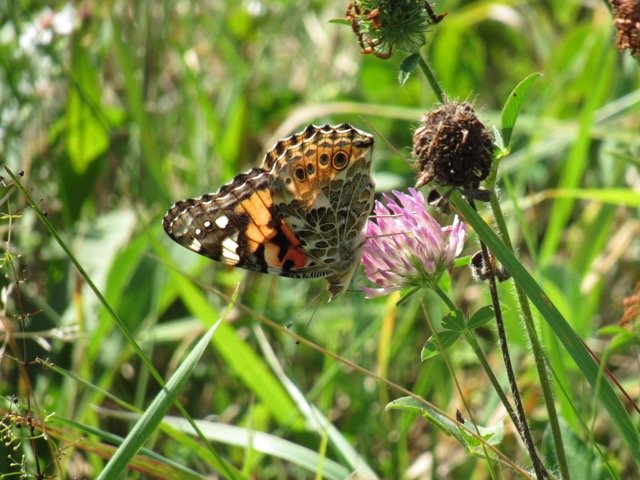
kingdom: Animalia
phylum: Arthropoda
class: Insecta
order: Lepidoptera
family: Nymphalidae
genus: Vanessa
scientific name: Vanessa cardui
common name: Painted Lady
